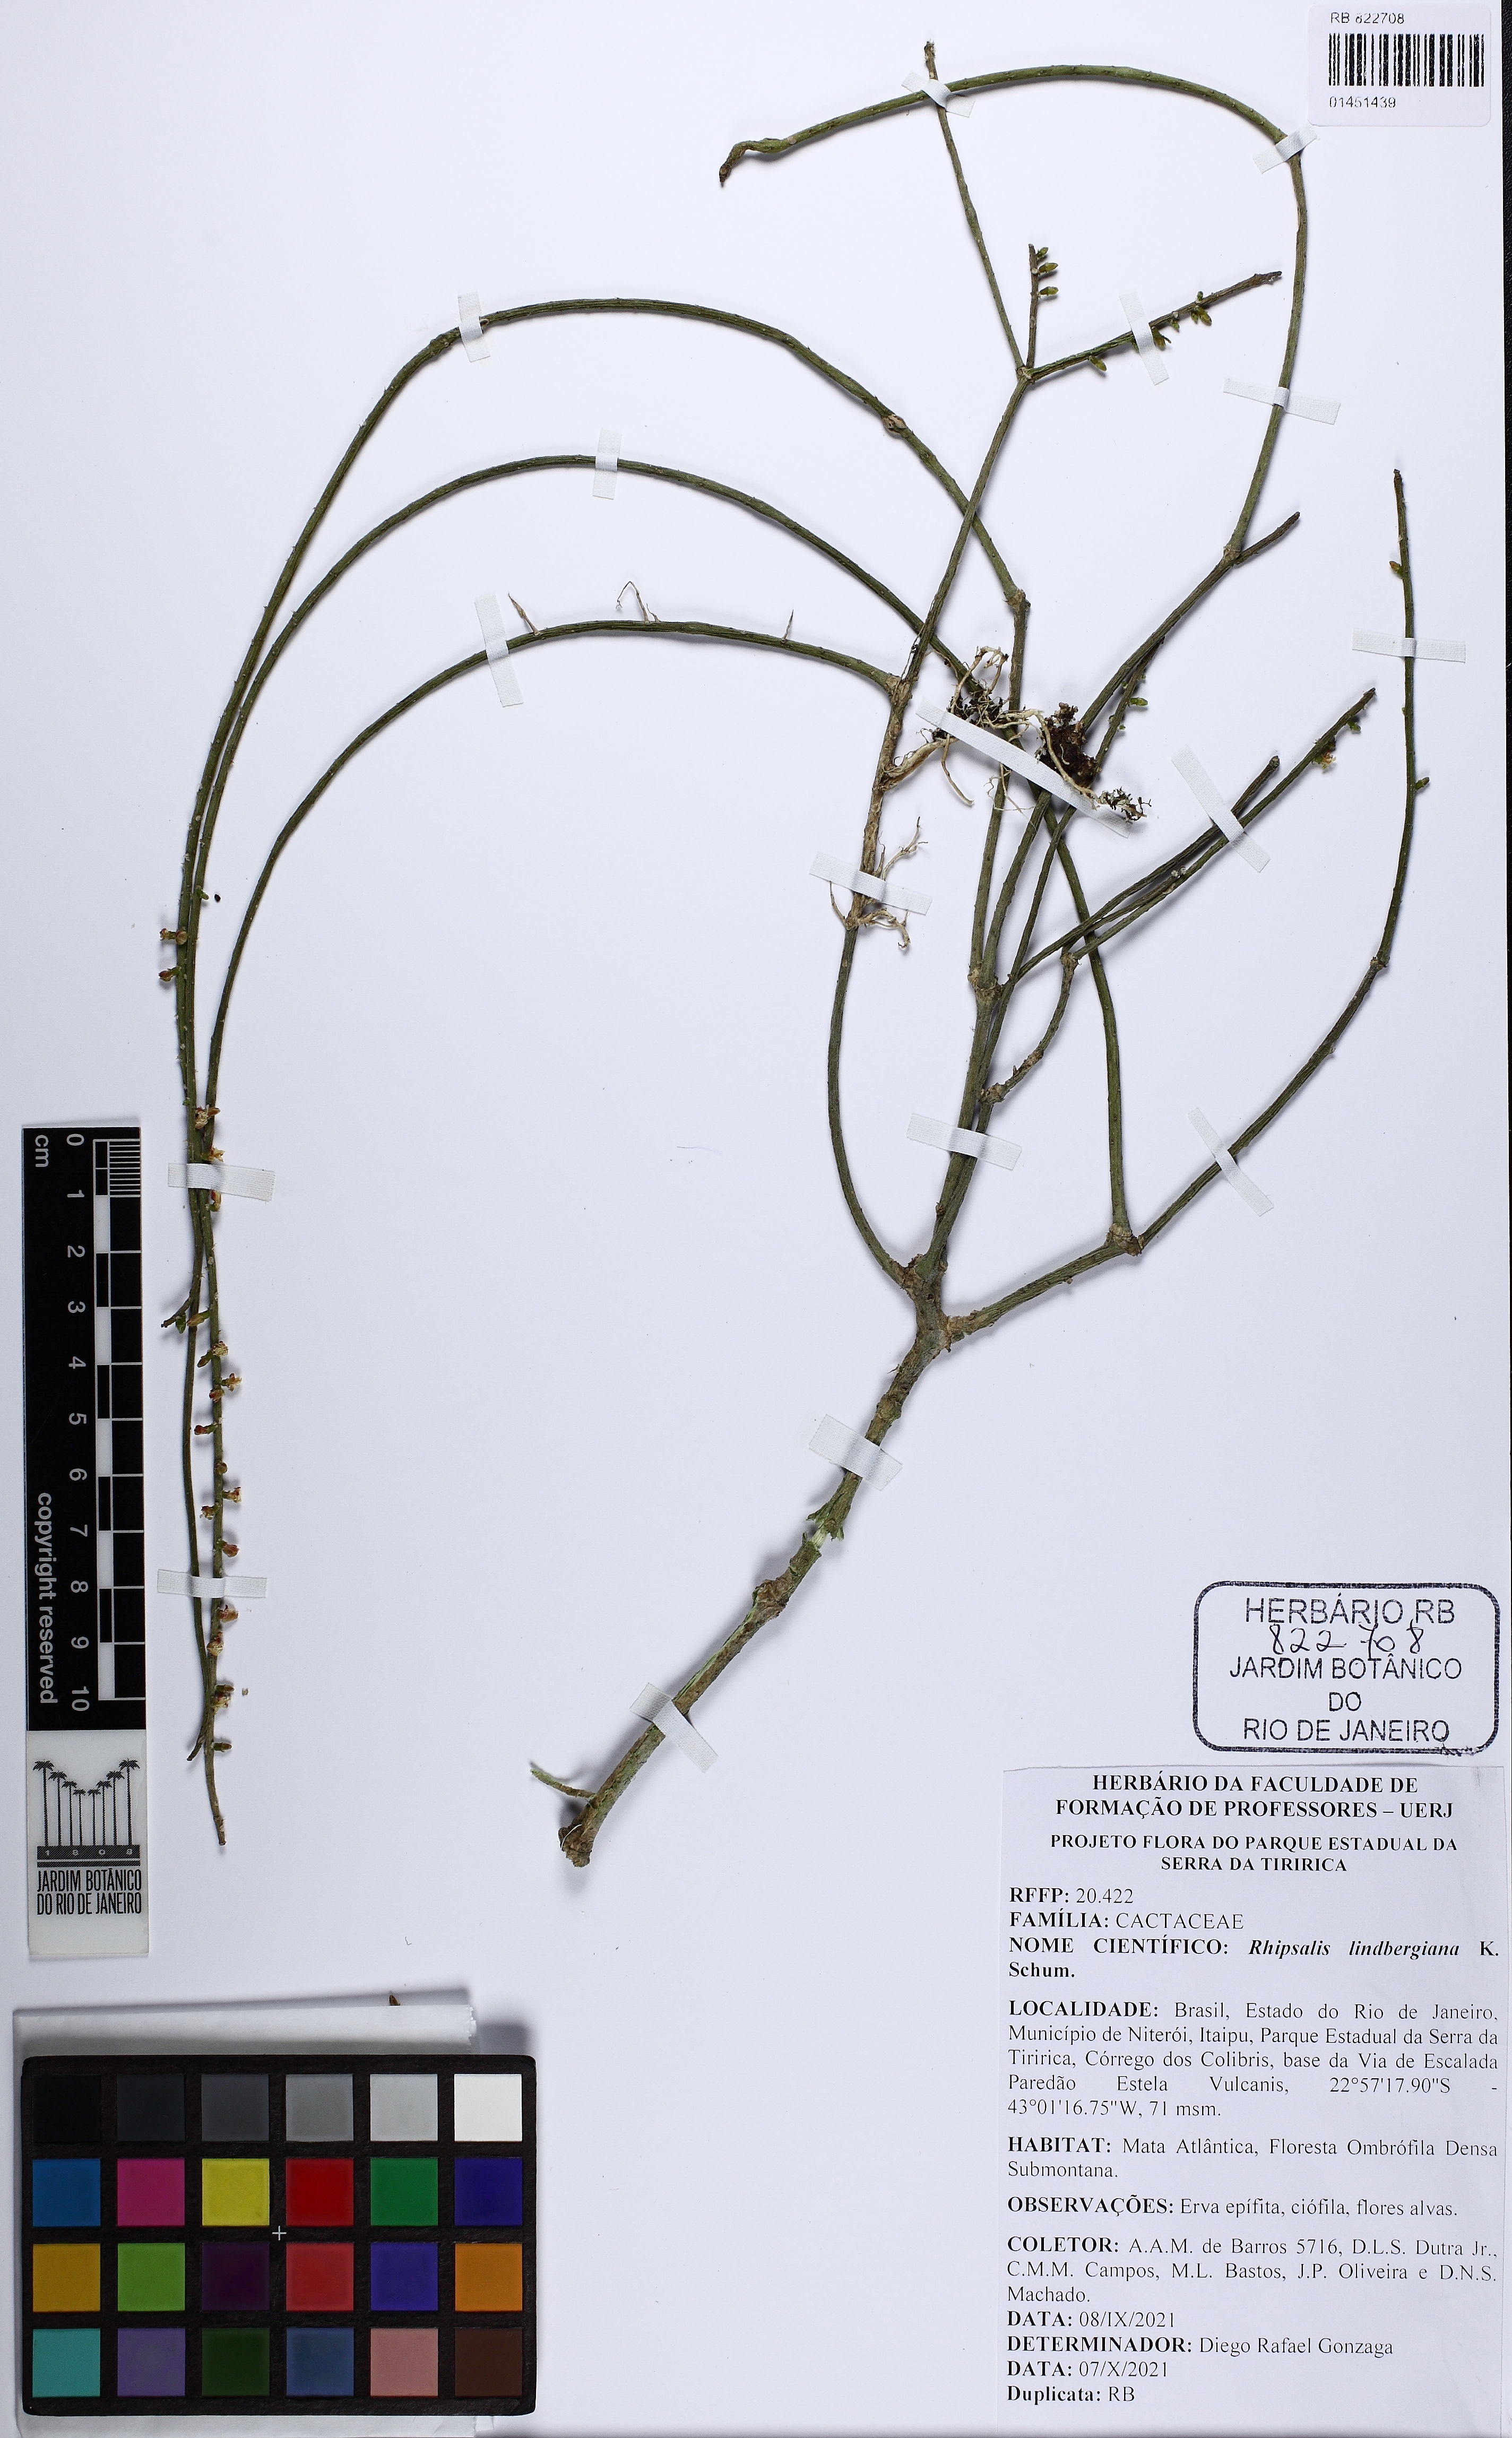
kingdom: Plantae
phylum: Tracheophyta
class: Magnoliopsida
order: Caryophyllales
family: Cactaceae
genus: Rhipsalis
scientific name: Rhipsalis lindbergiana
